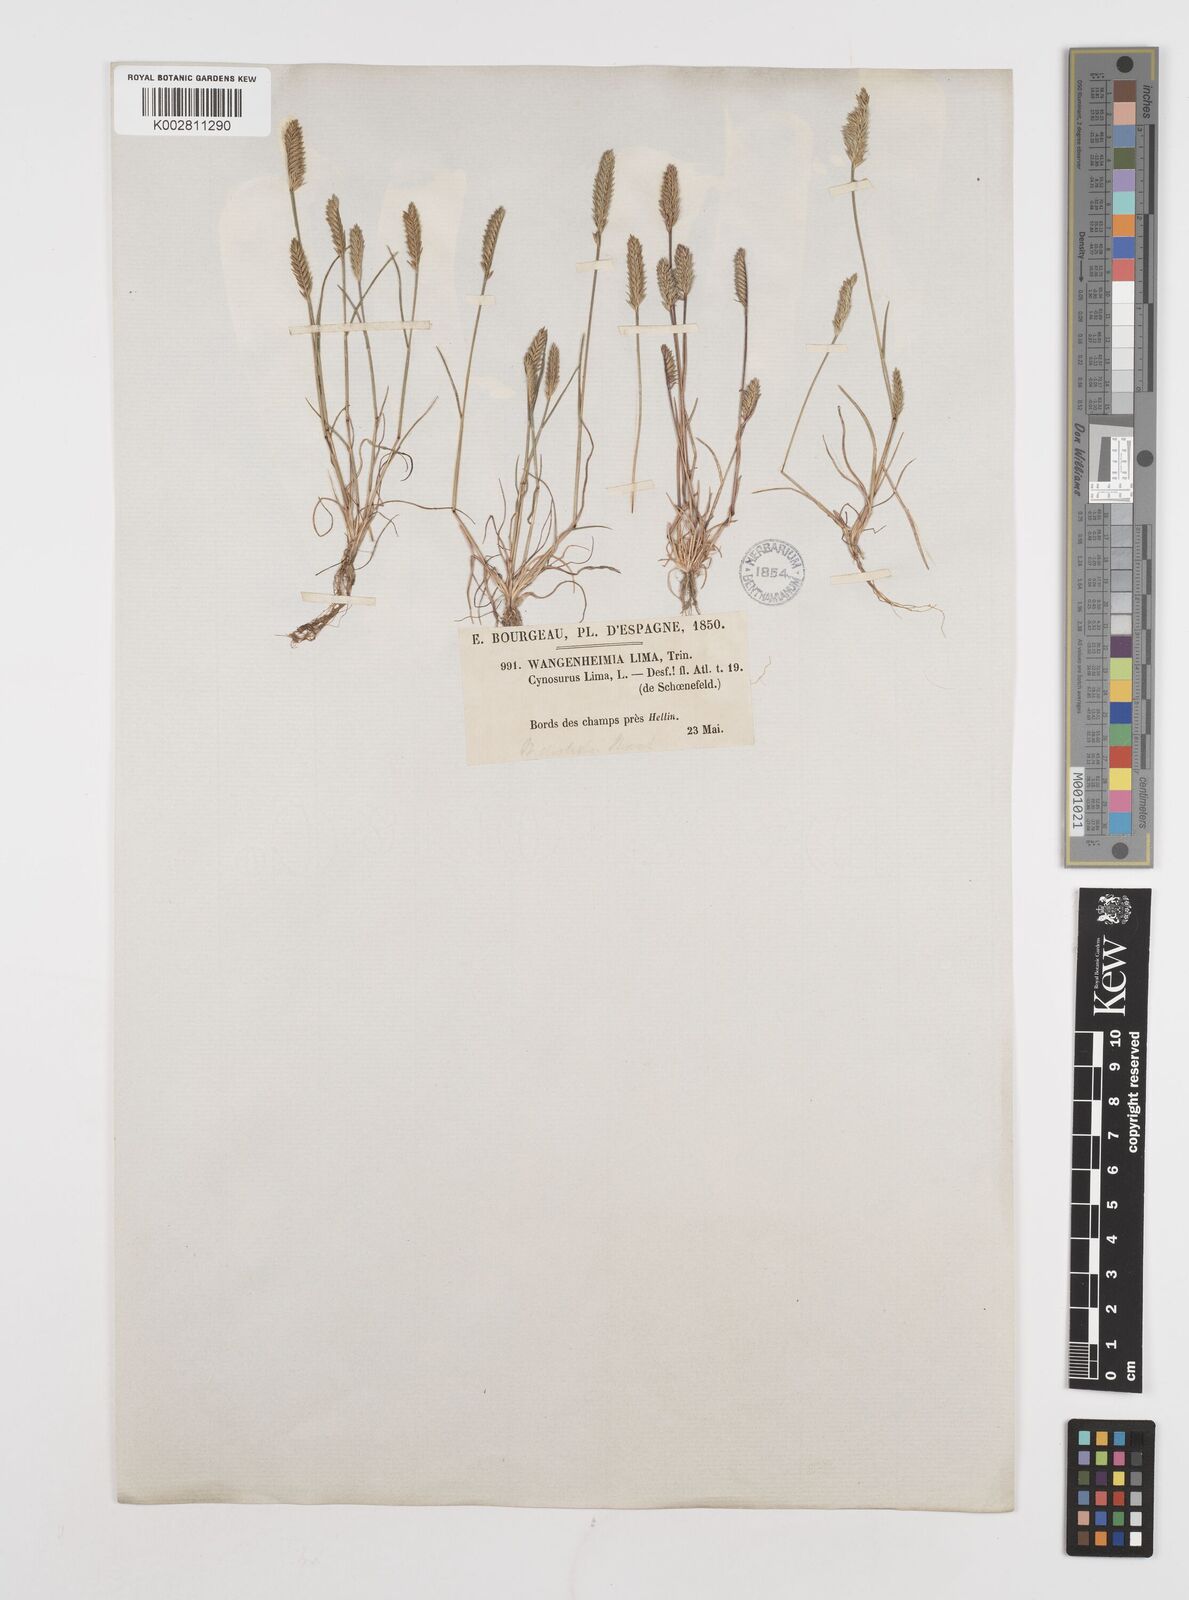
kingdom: Plantae
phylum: Tracheophyta
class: Liliopsida
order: Poales
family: Poaceae
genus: Wangenheimia
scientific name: Wangenheimia lima
